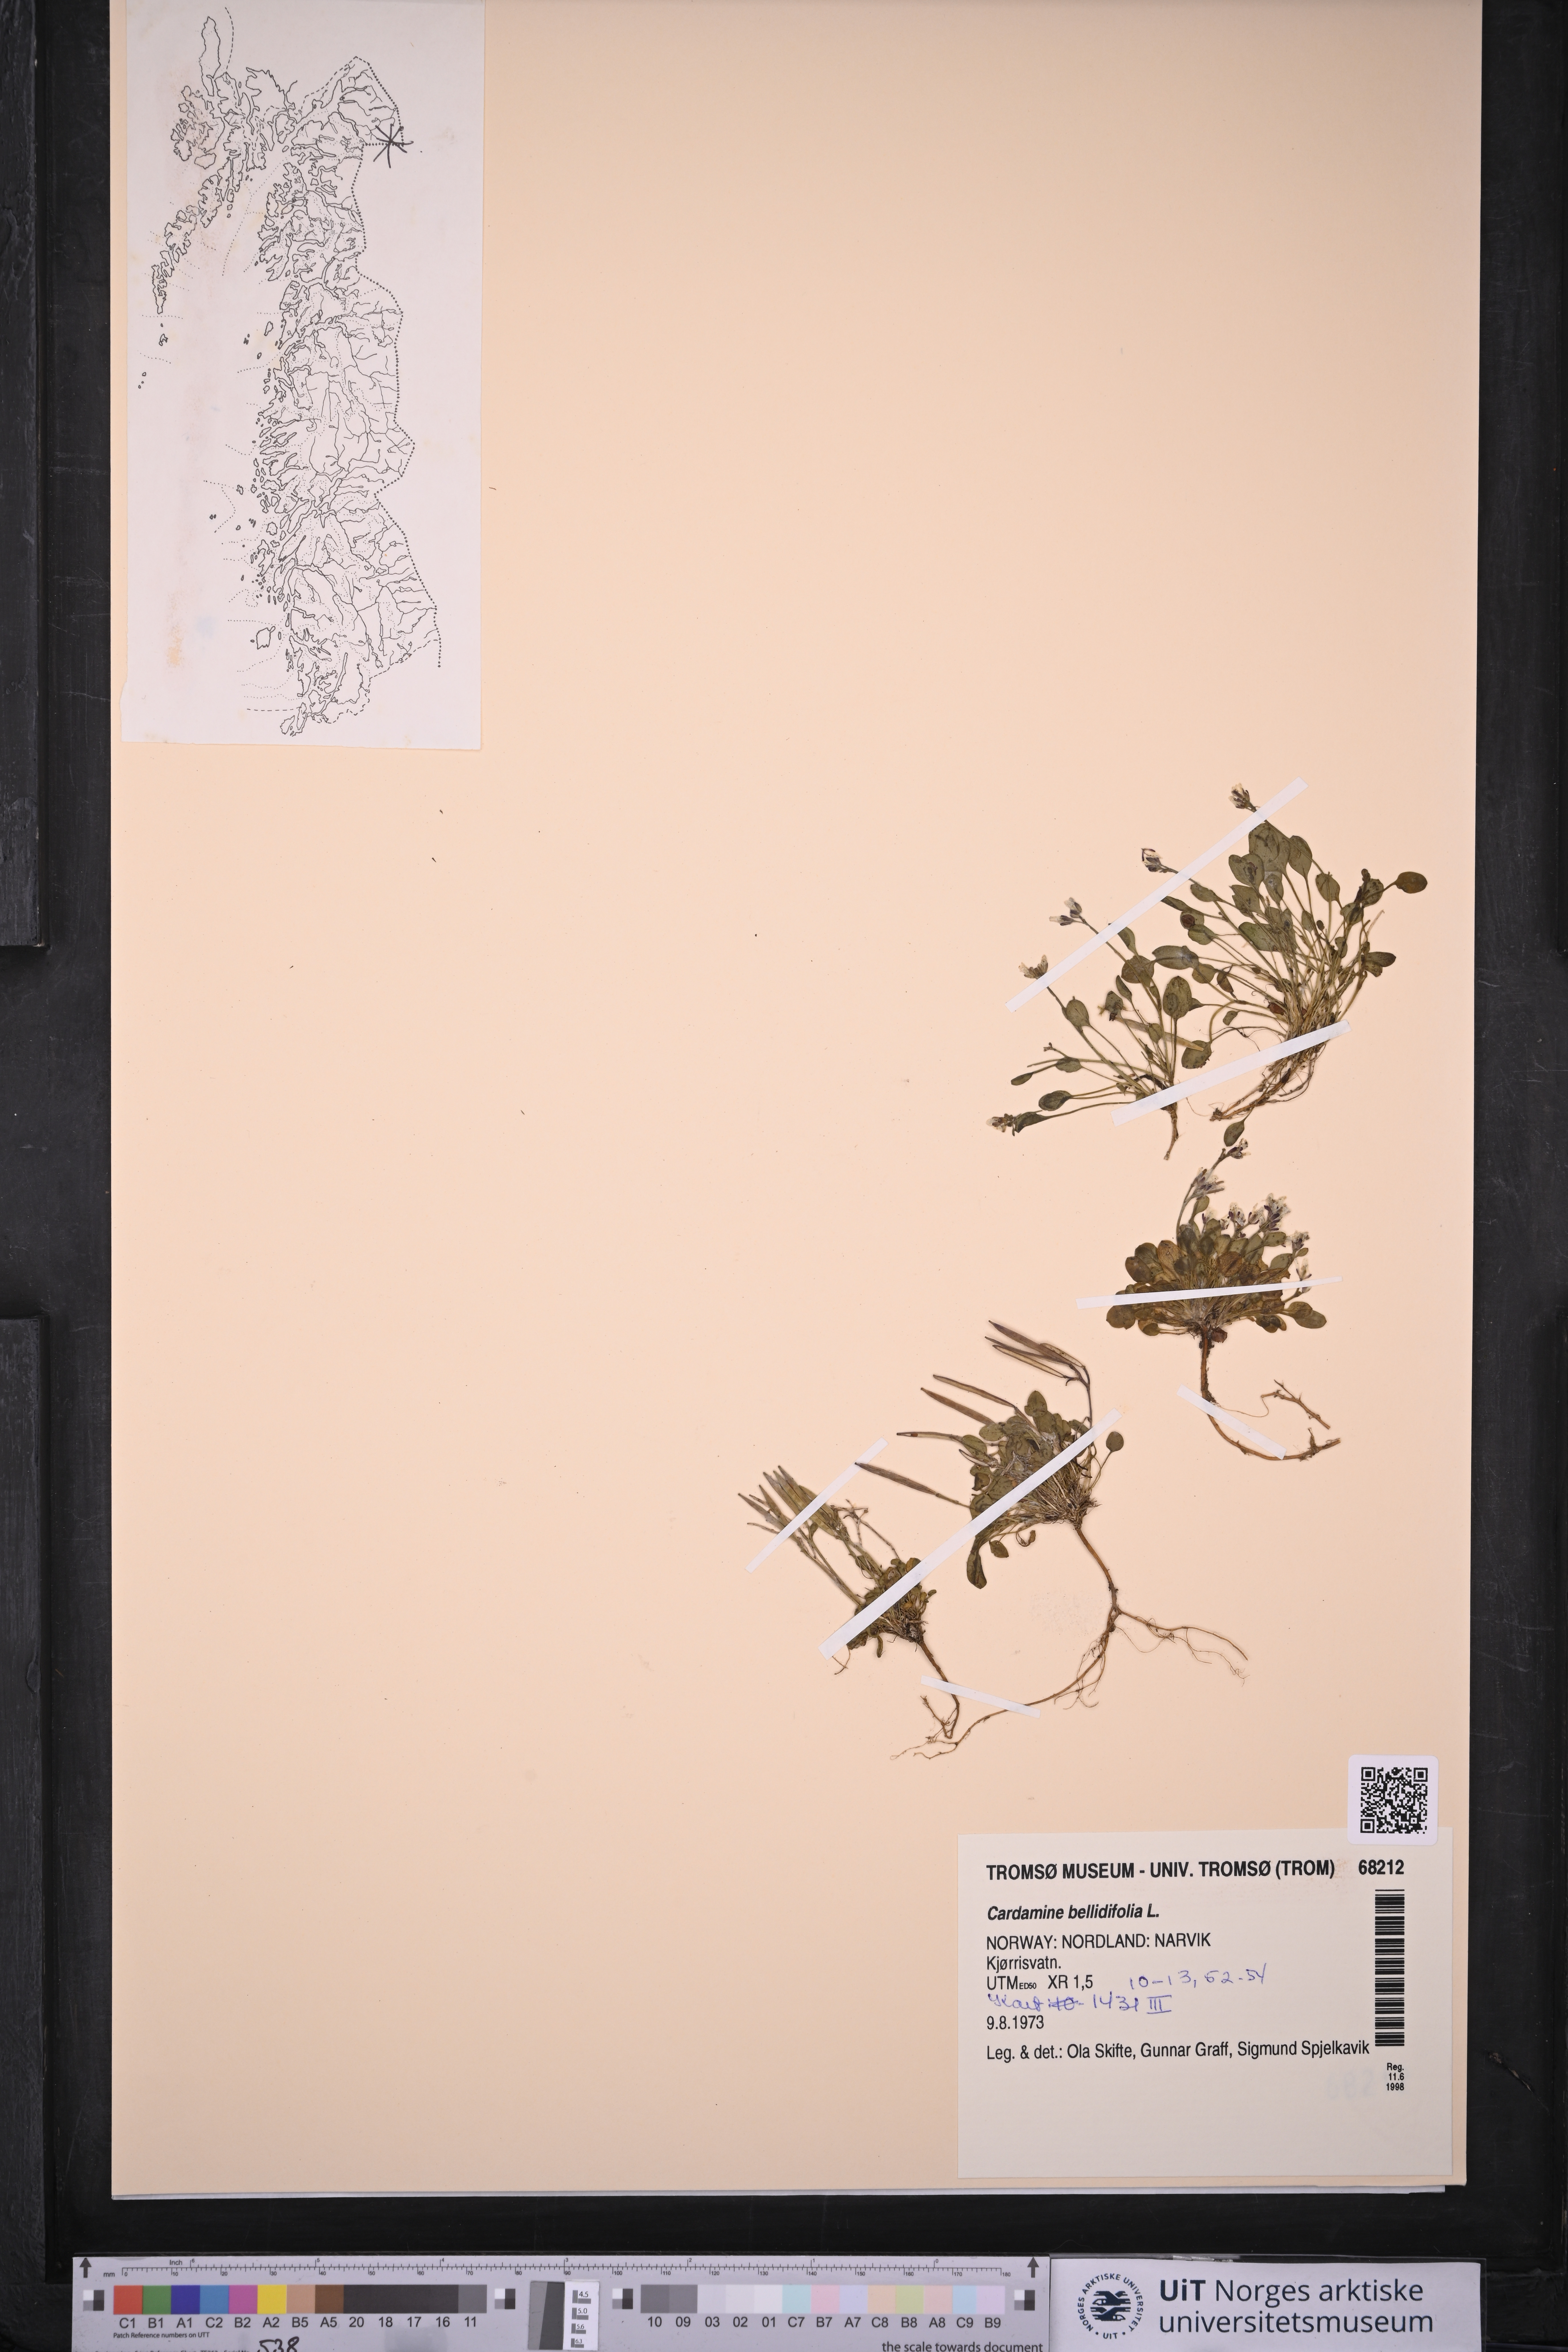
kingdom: Plantae
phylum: Tracheophyta
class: Magnoliopsida
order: Brassicales
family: Brassicaceae
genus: Cardamine
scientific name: Cardamine bellidifolia
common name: Alpine bittercress
